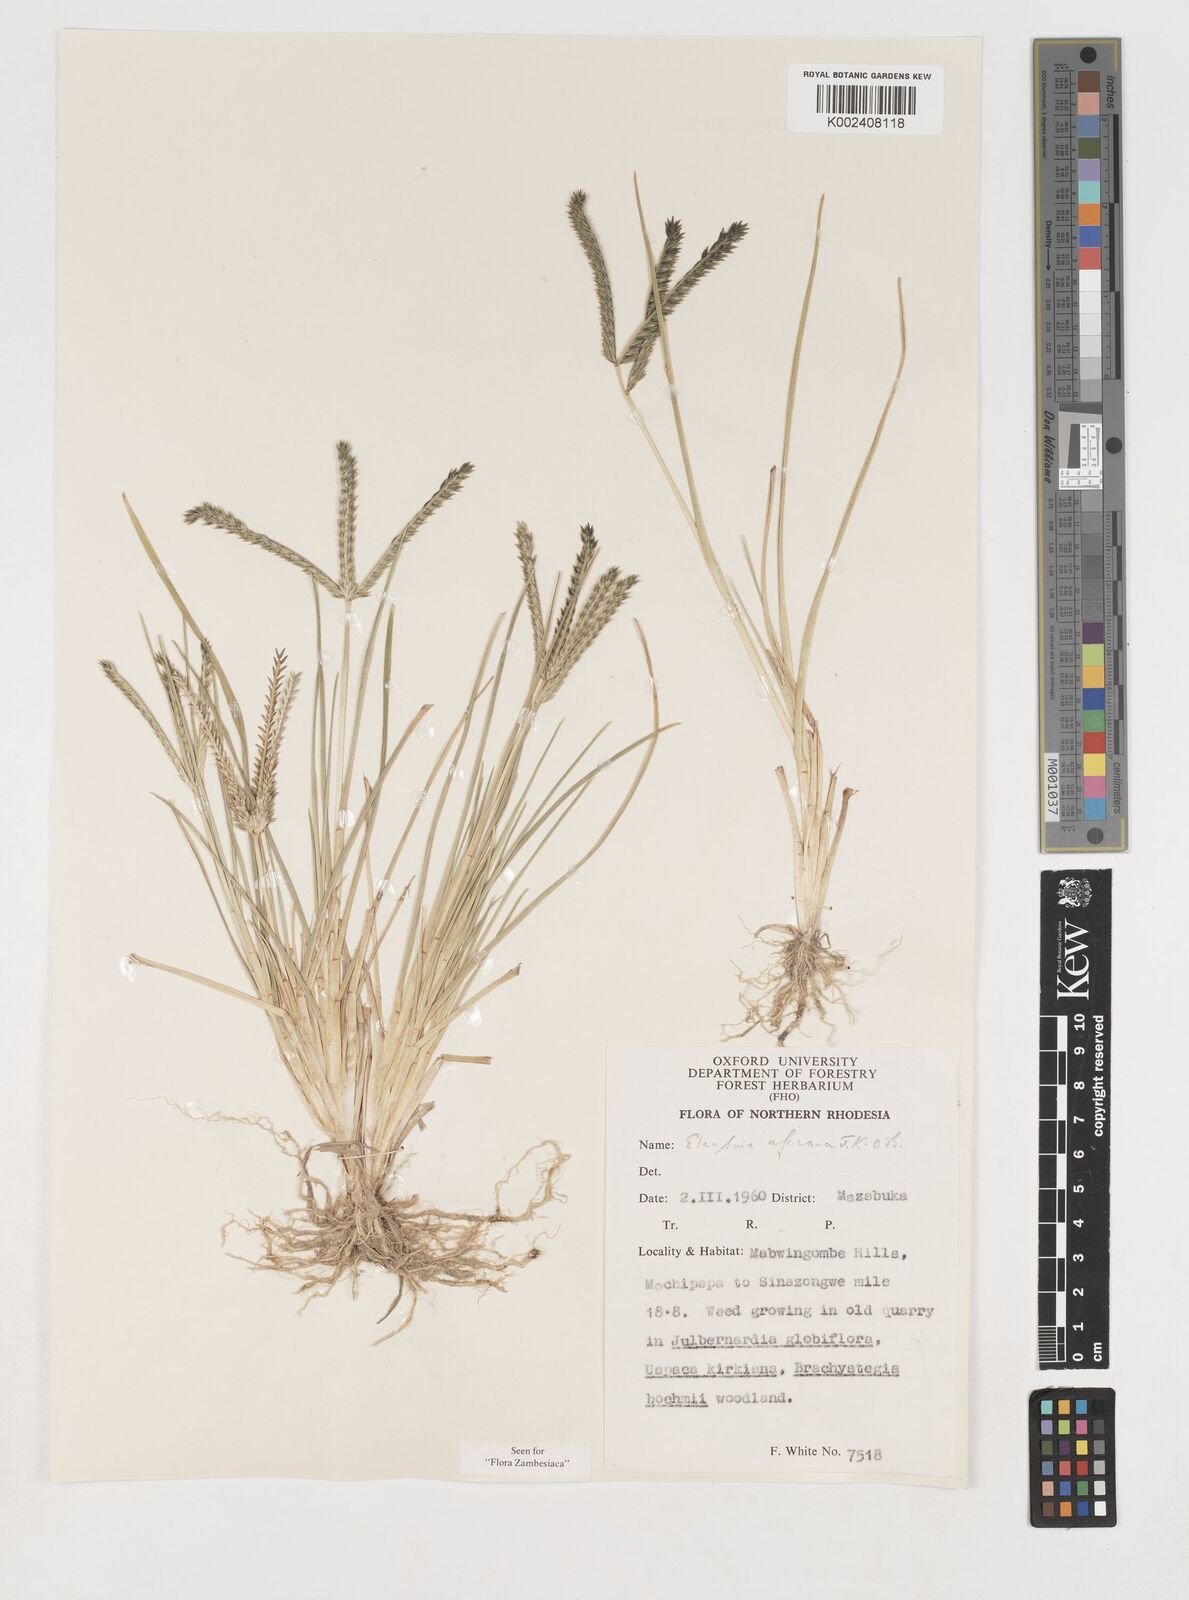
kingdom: Plantae
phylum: Tracheophyta
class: Liliopsida
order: Poales
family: Poaceae
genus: Eleusine
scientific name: Eleusine africana
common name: Wild african finger millet
